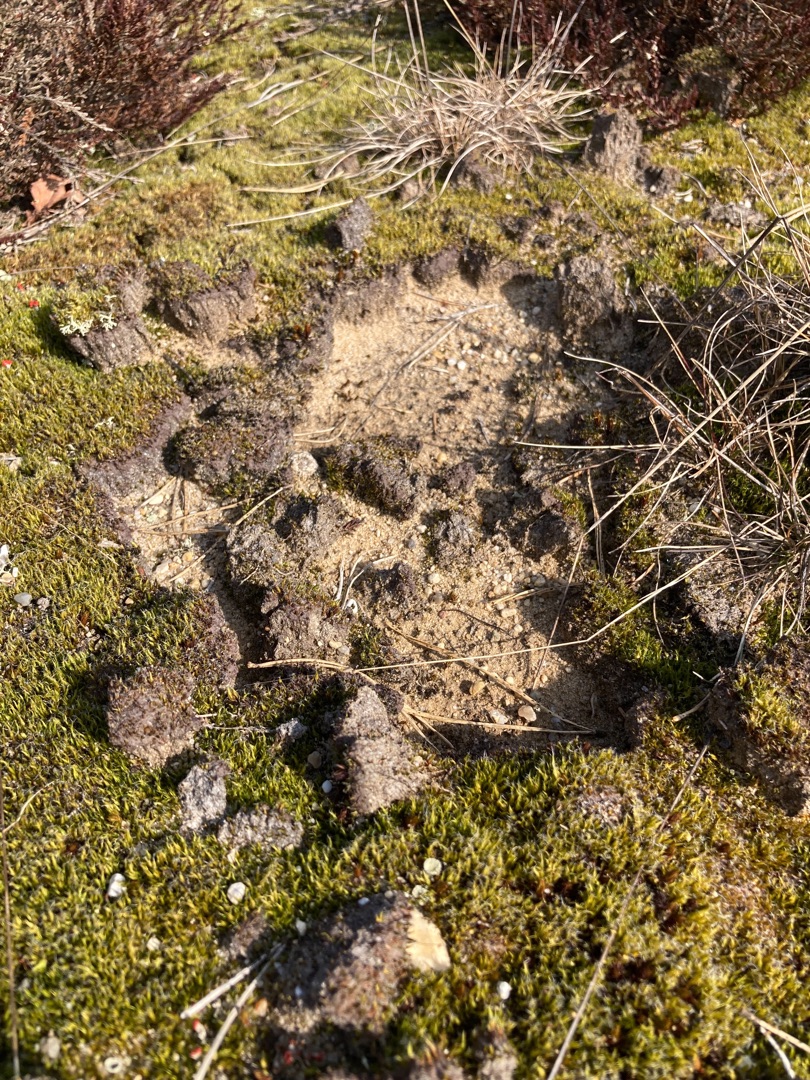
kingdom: Plantae
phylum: Bryophyta
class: Bryopsida
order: Dicranales
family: Leucobryaceae
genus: Campylopus
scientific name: Campylopus introflexus
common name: Stjerne-bredribbe
